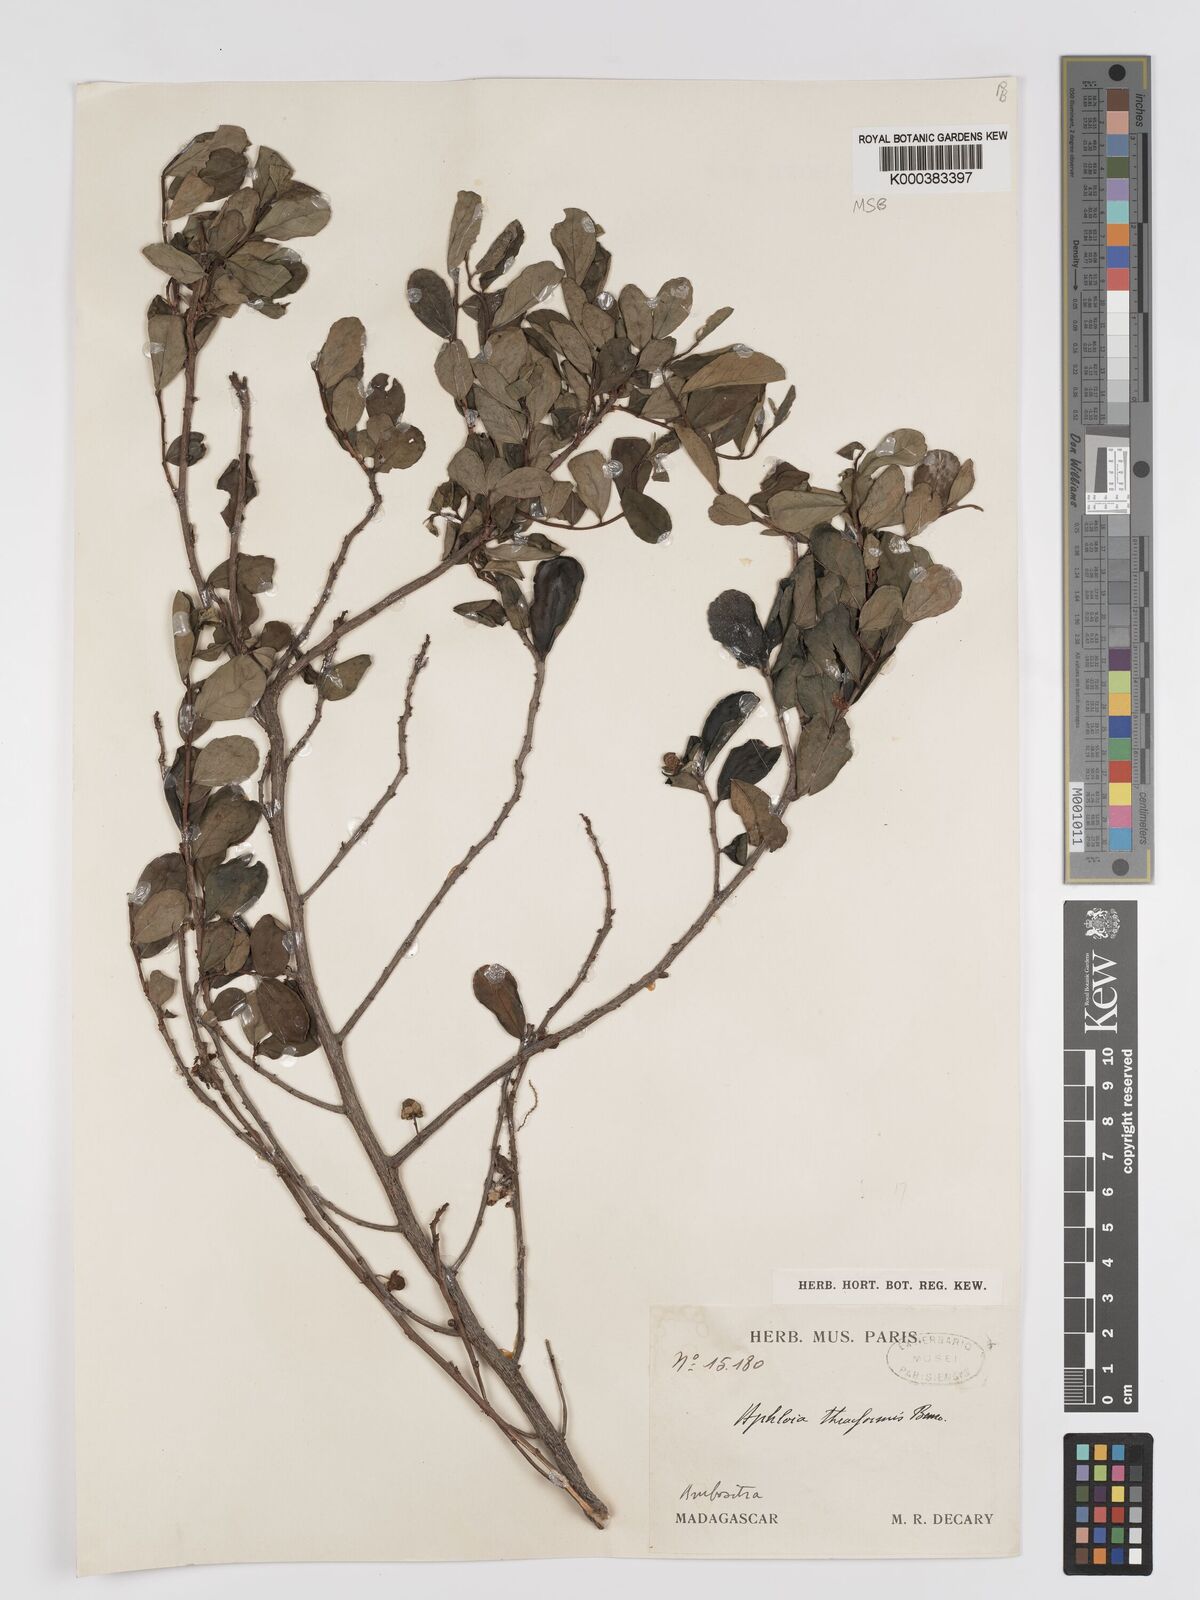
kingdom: Plantae
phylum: Tracheophyta
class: Magnoliopsida
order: Crossosomatales
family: Aphloiaceae
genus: Aphloia
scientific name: Aphloia theiformis
